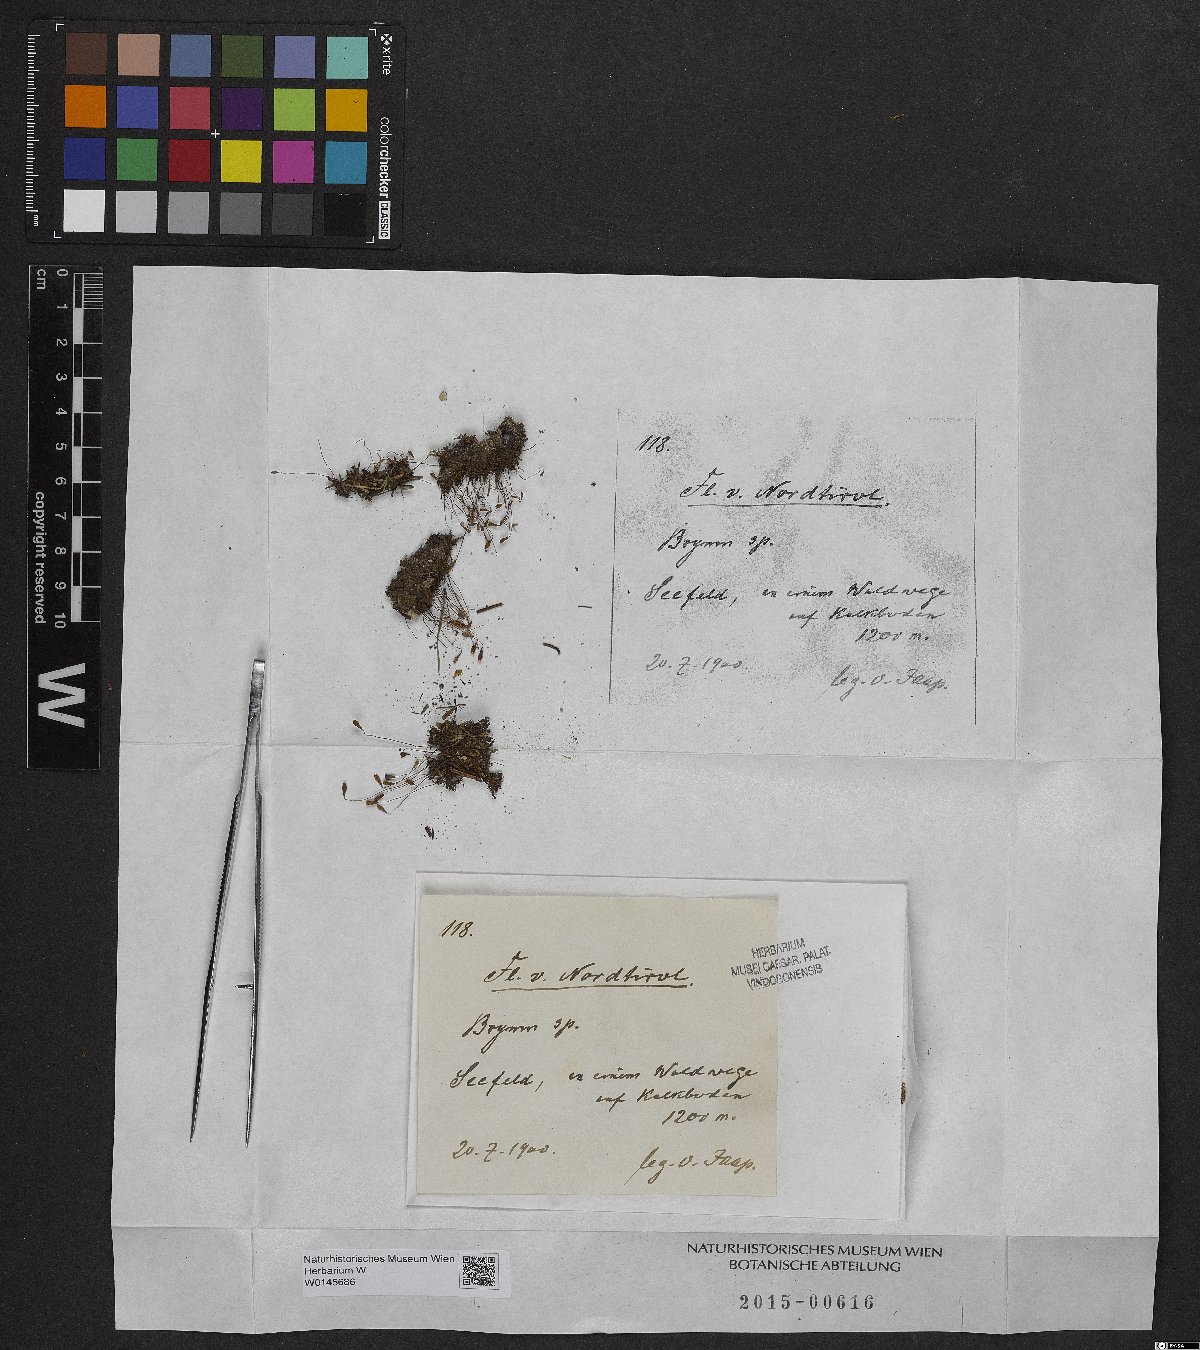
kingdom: Plantae
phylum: Bryophyta
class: Bryopsida
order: Bryales
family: Bryaceae
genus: Bryum
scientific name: Bryum
